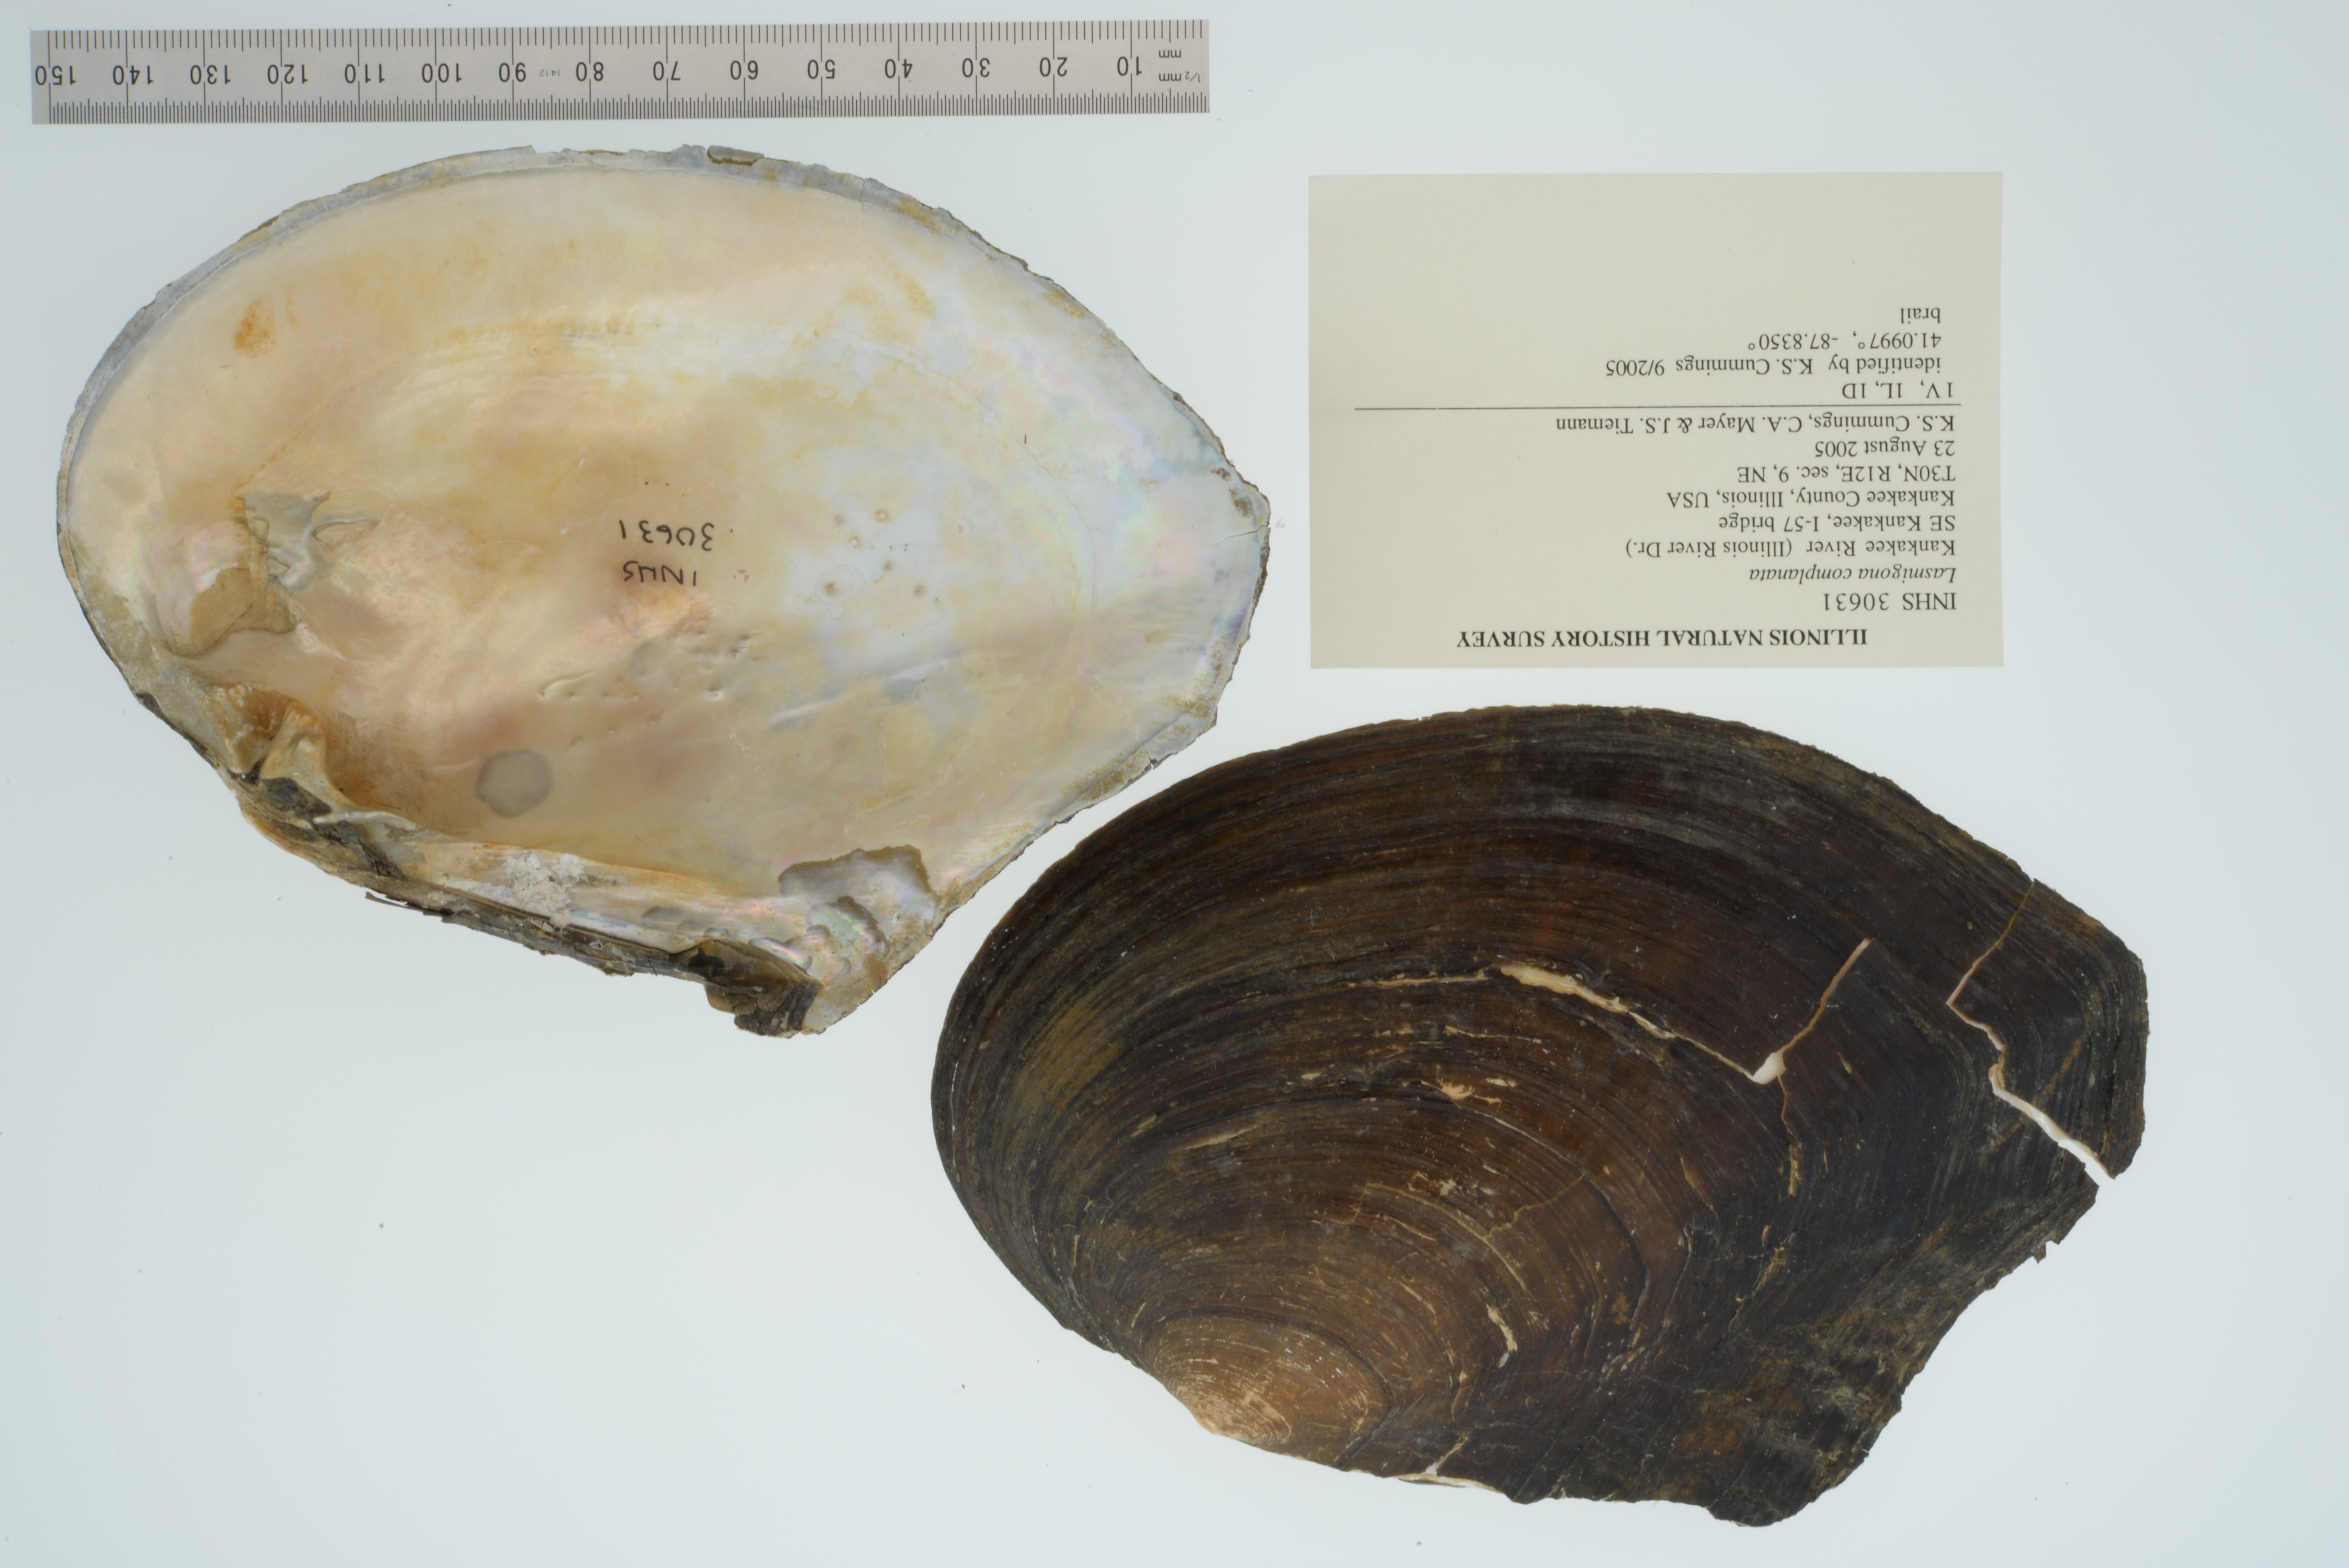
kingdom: Animalia
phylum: Mollusca
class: Bivalvia
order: Unionida
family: Unionidae
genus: Lasmigona
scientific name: Lasmigona complanata
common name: White heelsplitter
